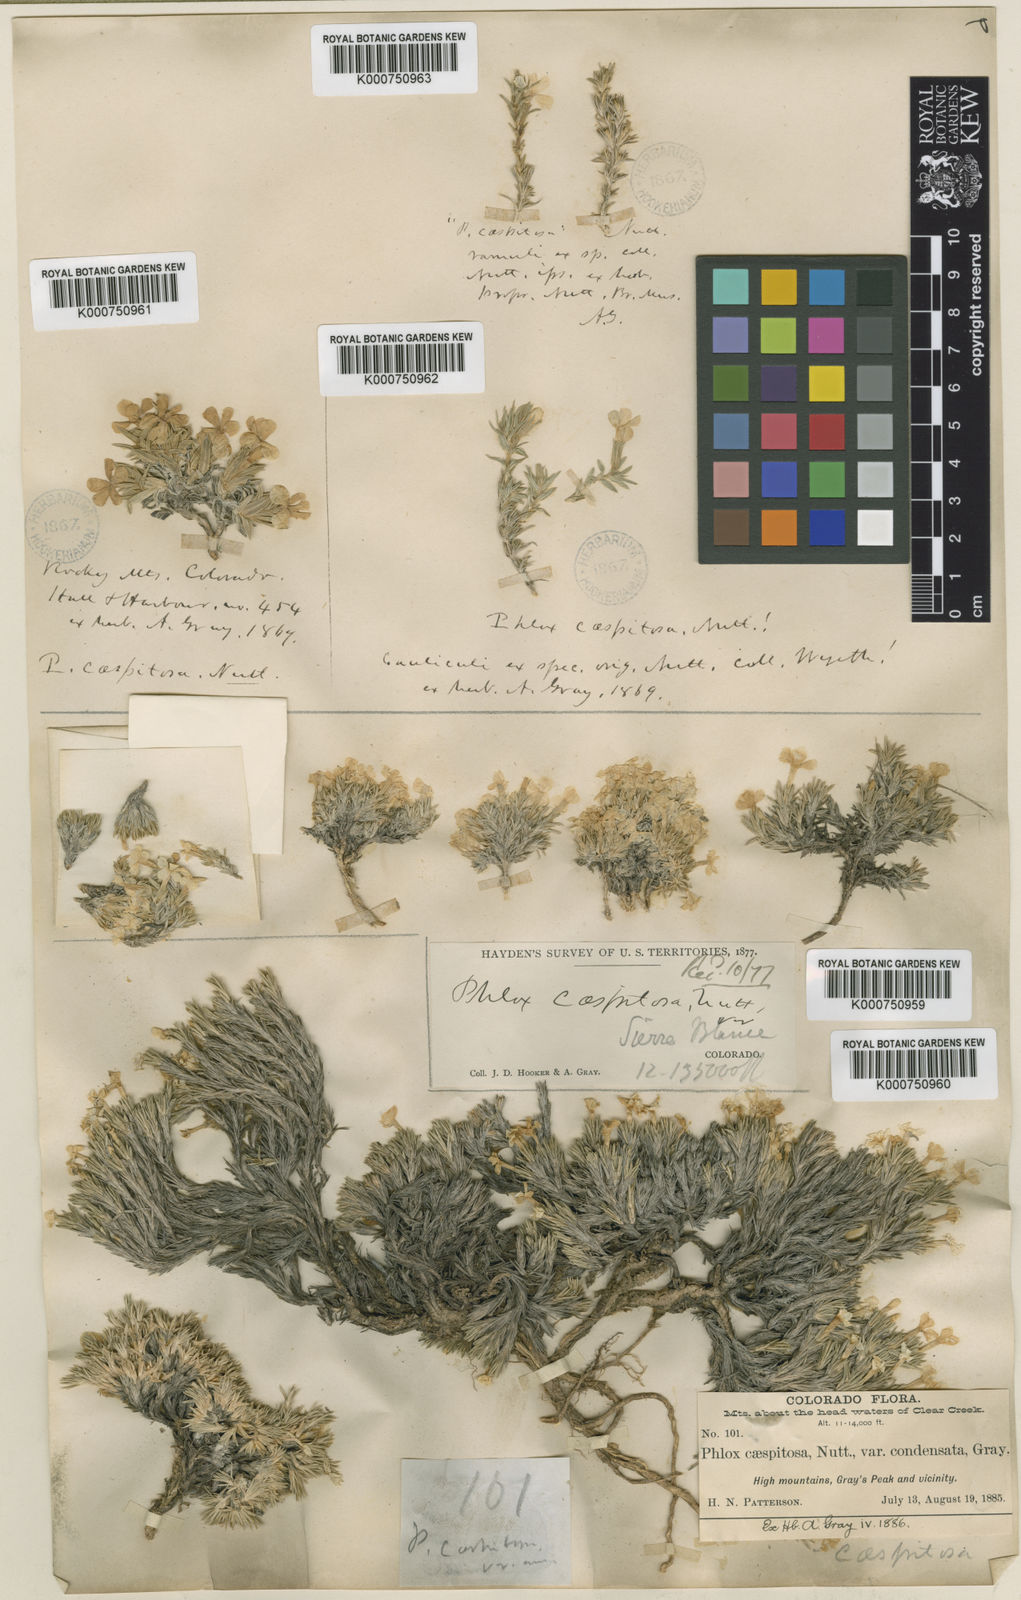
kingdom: Plantae
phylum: Tracheophyta
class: Magnoliopsida
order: Ericales
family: Polemoniaceae
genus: Phlox
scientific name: Phlox
